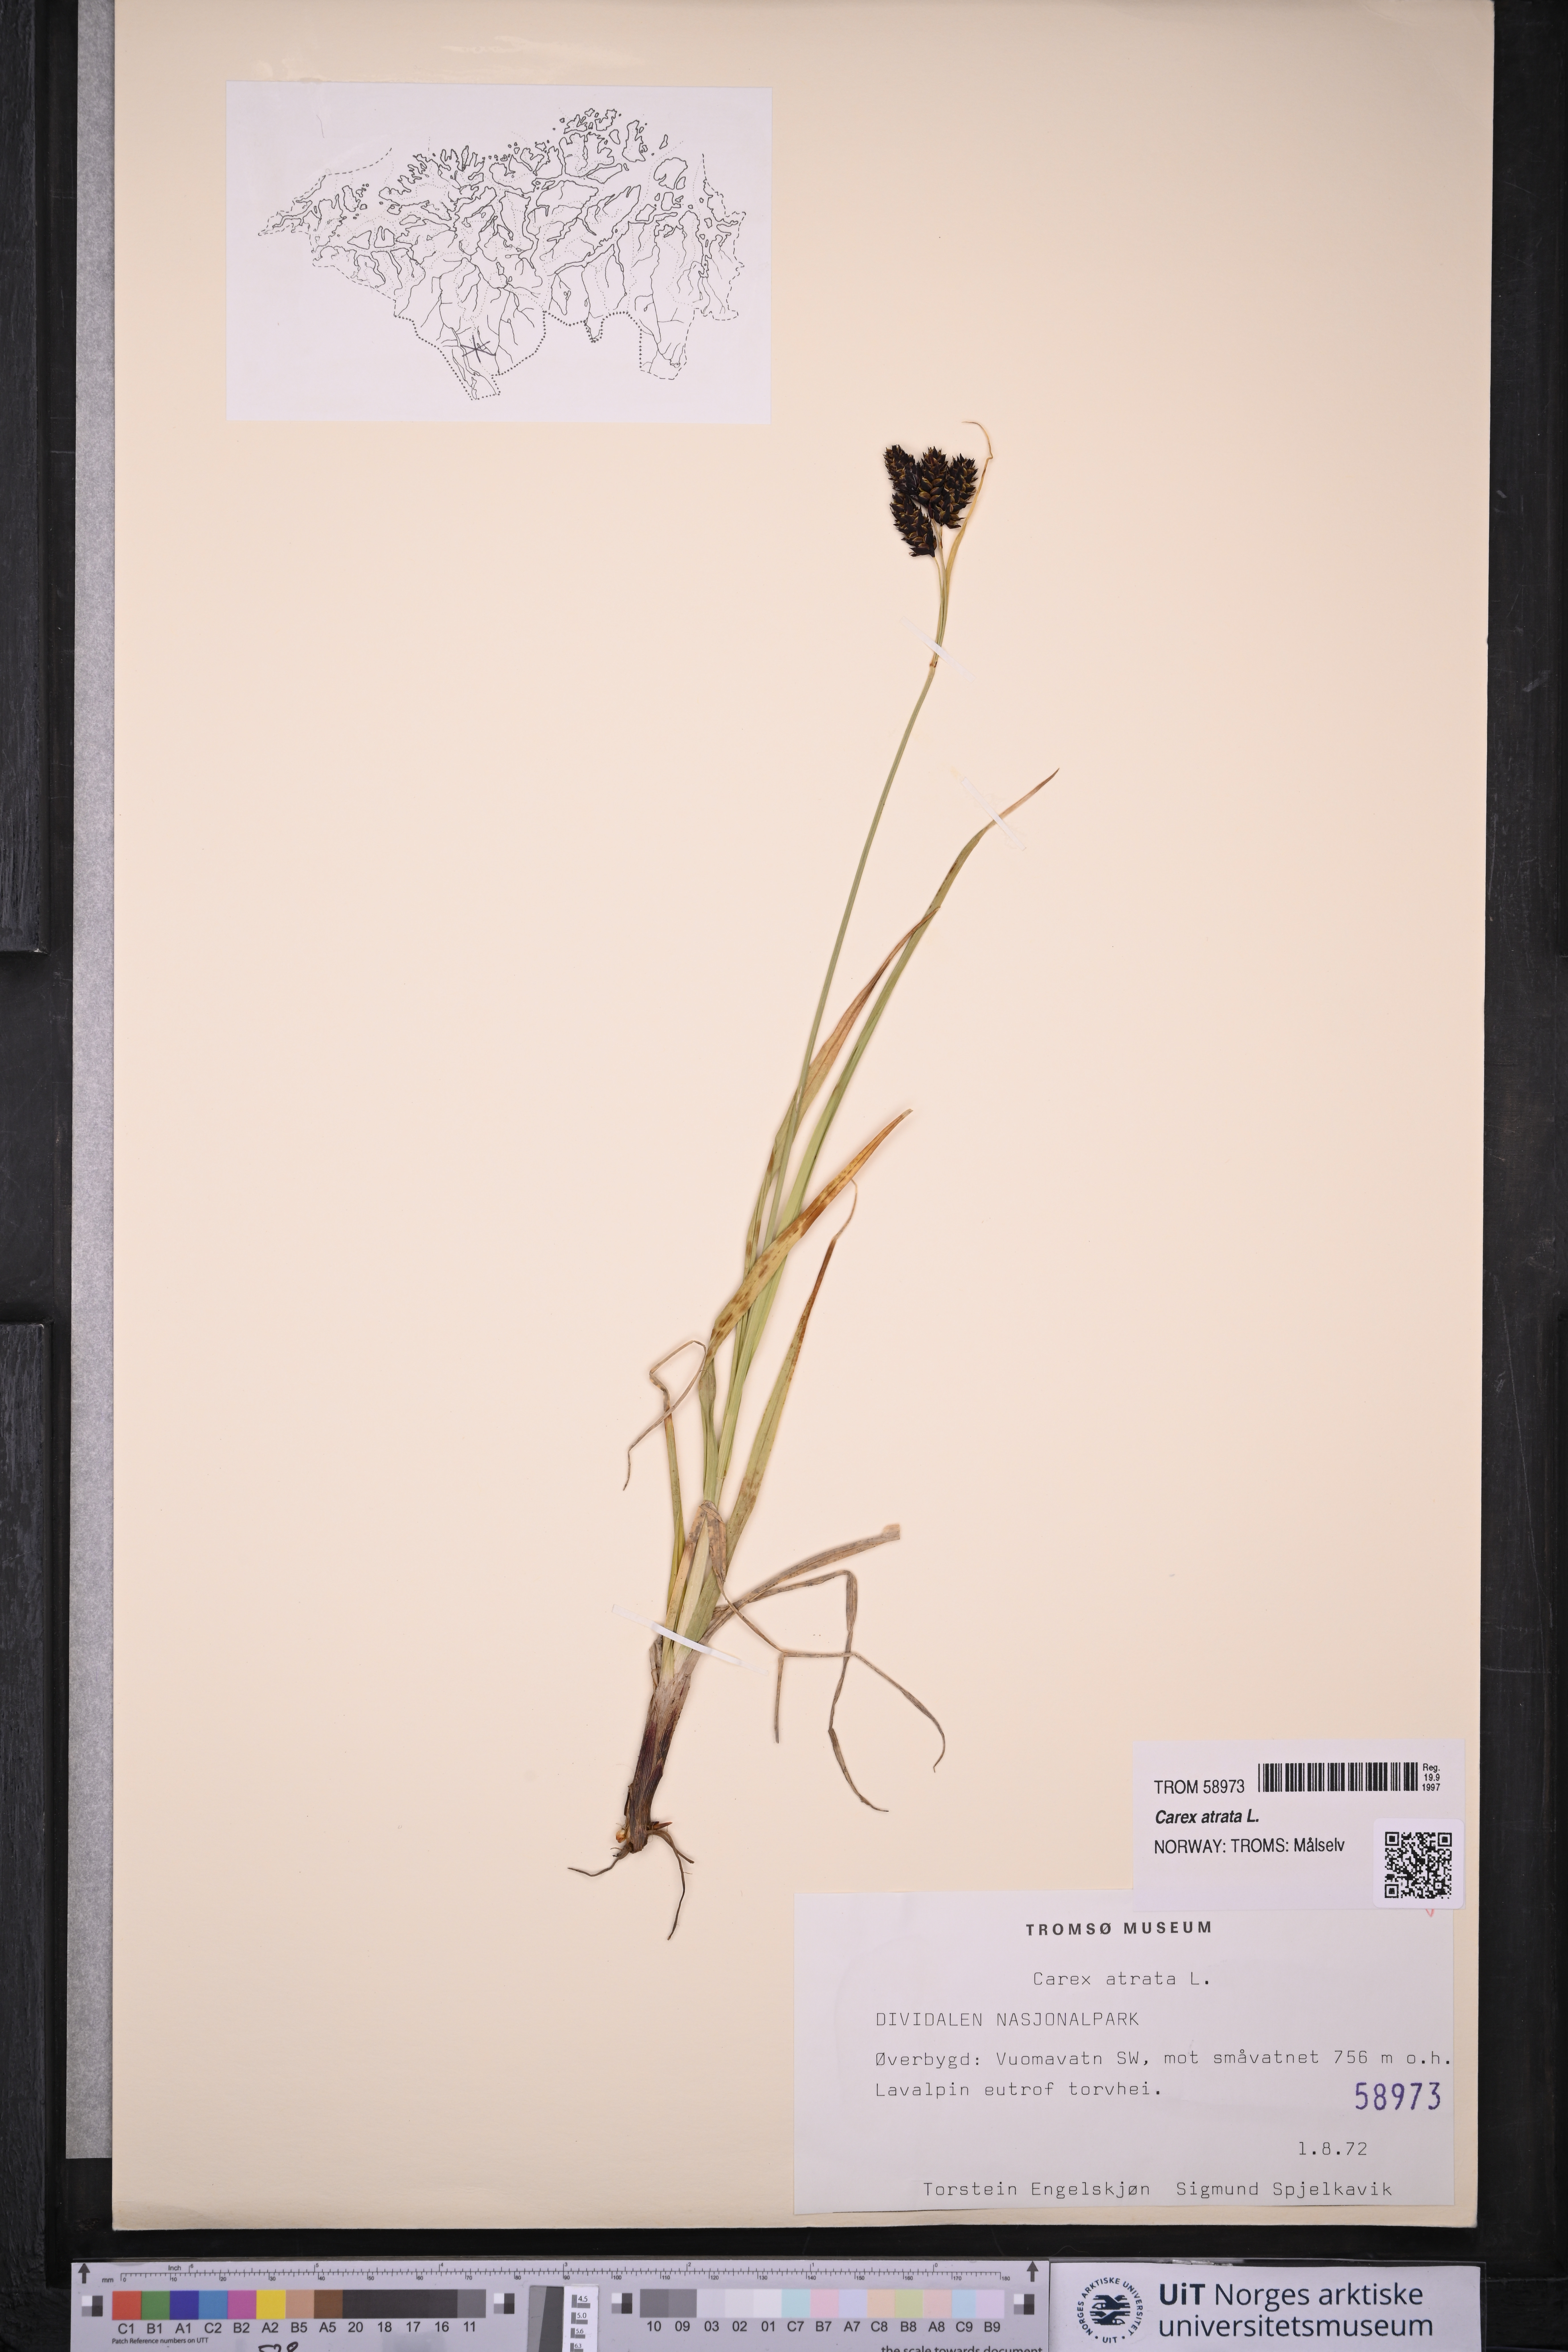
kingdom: Plantae
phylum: Tracheophyta
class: Liliopsida
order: Poales
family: Cyperaceae
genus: Carex
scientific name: Carex atrata
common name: Black alpine sedge
